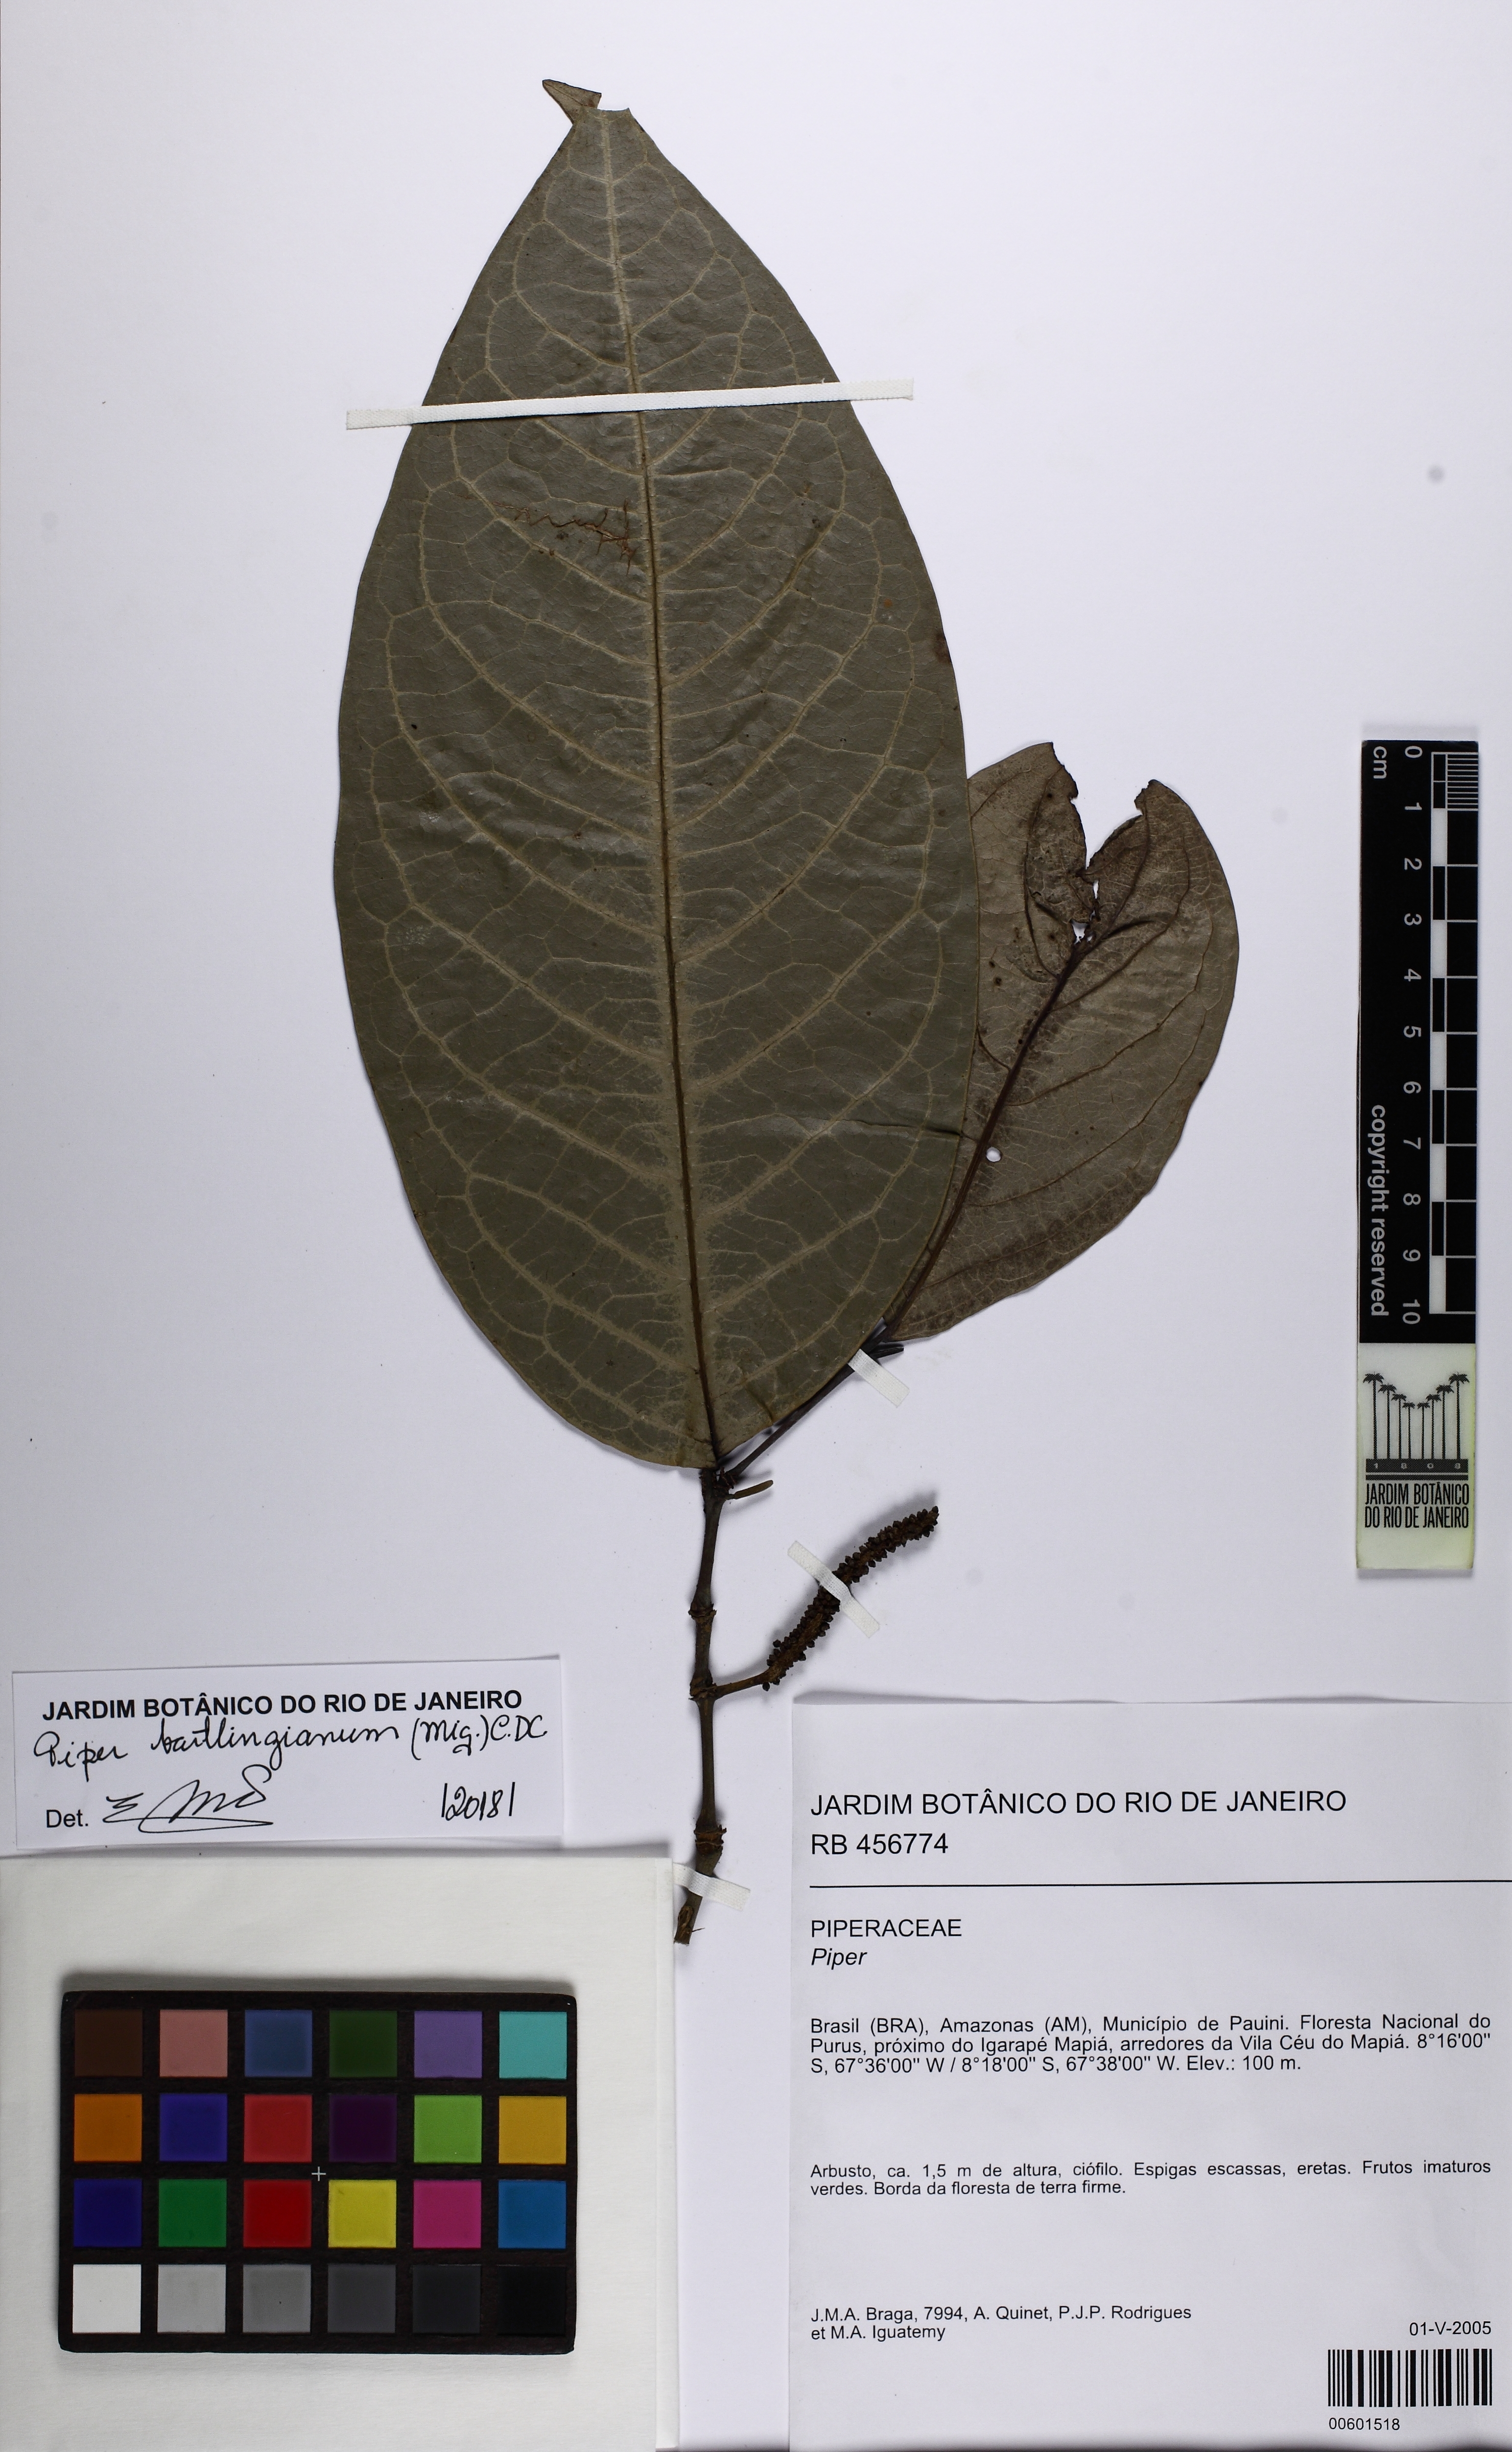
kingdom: Plantae
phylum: Tracheophyta
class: Magnoliopsida
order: Piperales
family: Piperaceae
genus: Piper
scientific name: Piper bartlingianum
